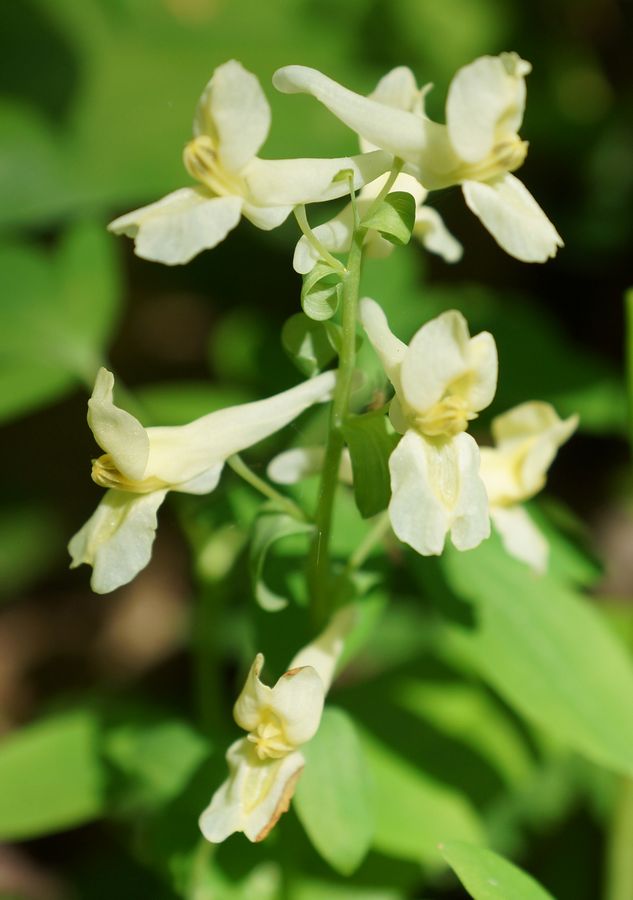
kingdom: Plantae
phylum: Tracheophyta
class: Magnoliopsida
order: Ranunculales
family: Papaveraceae
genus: Corydalis
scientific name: Corydalis cava
